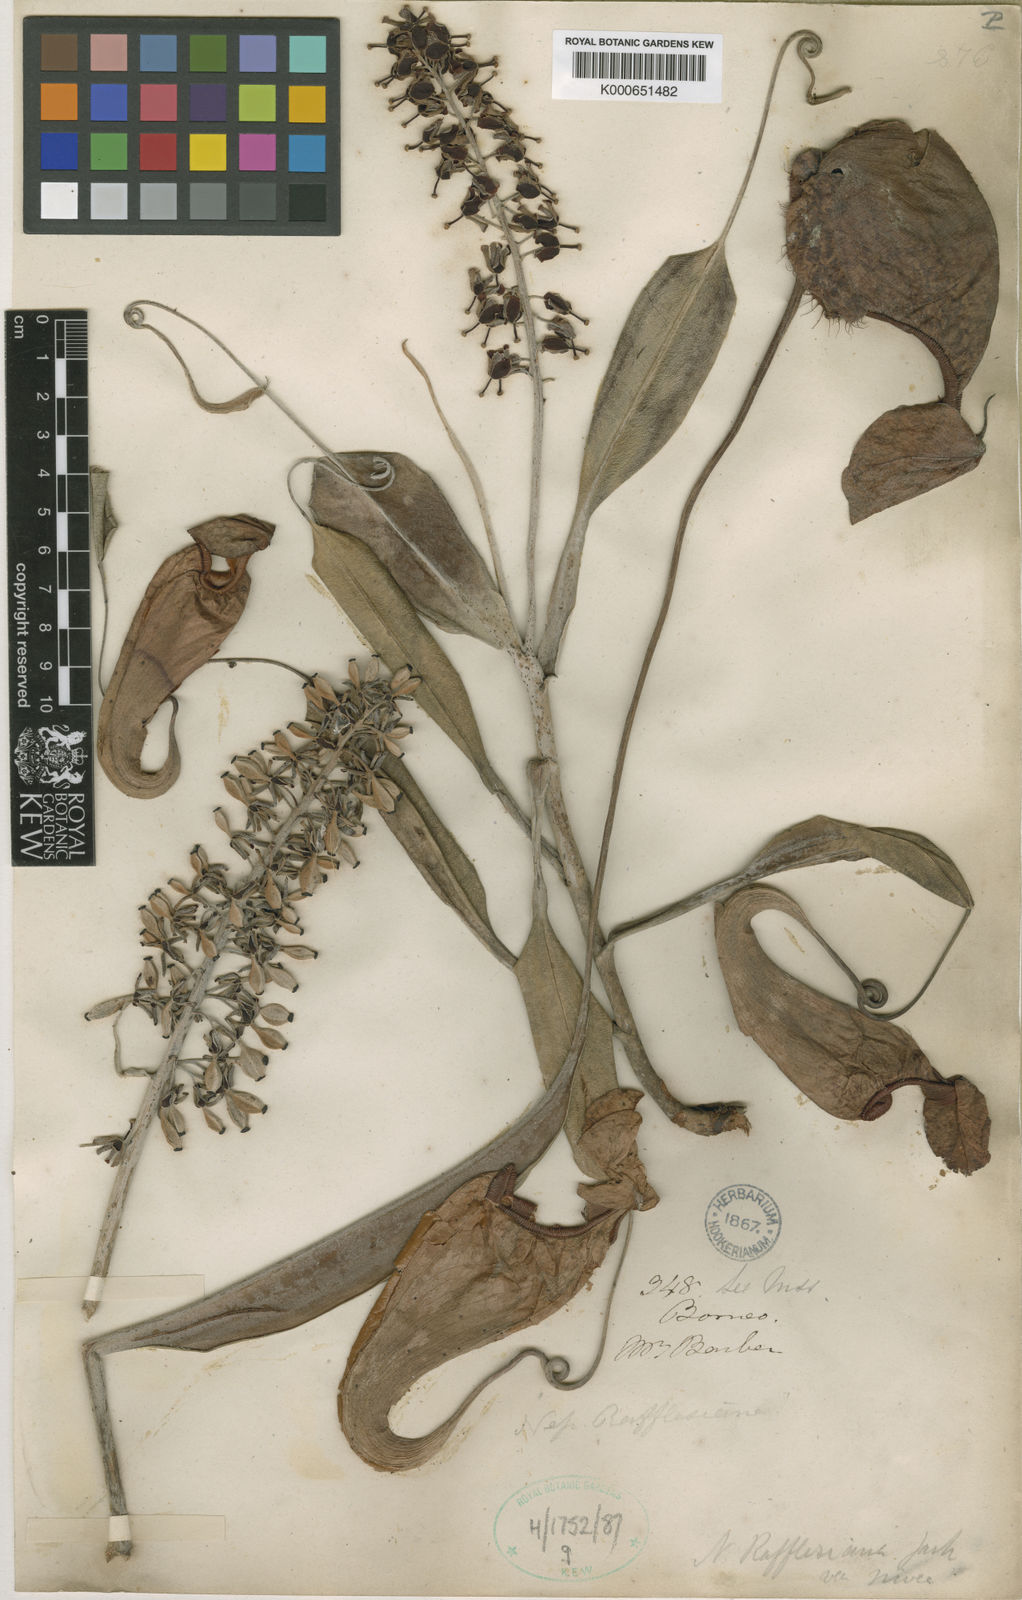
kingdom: Plantae
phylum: Tracheophyta
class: Magnoliopsida
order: Caryophyllales
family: Nepenthaceae
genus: Nepenthes
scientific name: Nepenthes rafflesiana
